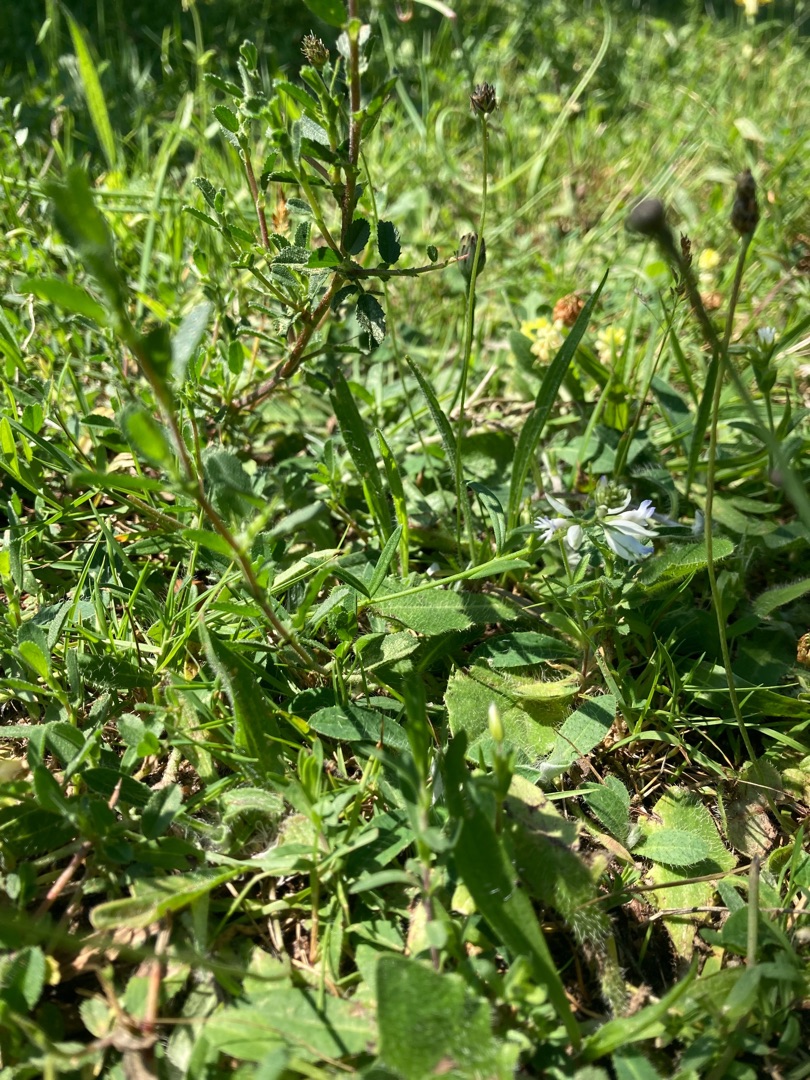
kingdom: Plantae
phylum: Tracheophyta
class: Magnoliopsida
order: Fabales
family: Polygalaceae
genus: Polygala
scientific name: Polygala vulgaris
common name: Almindelig mælkeurt
